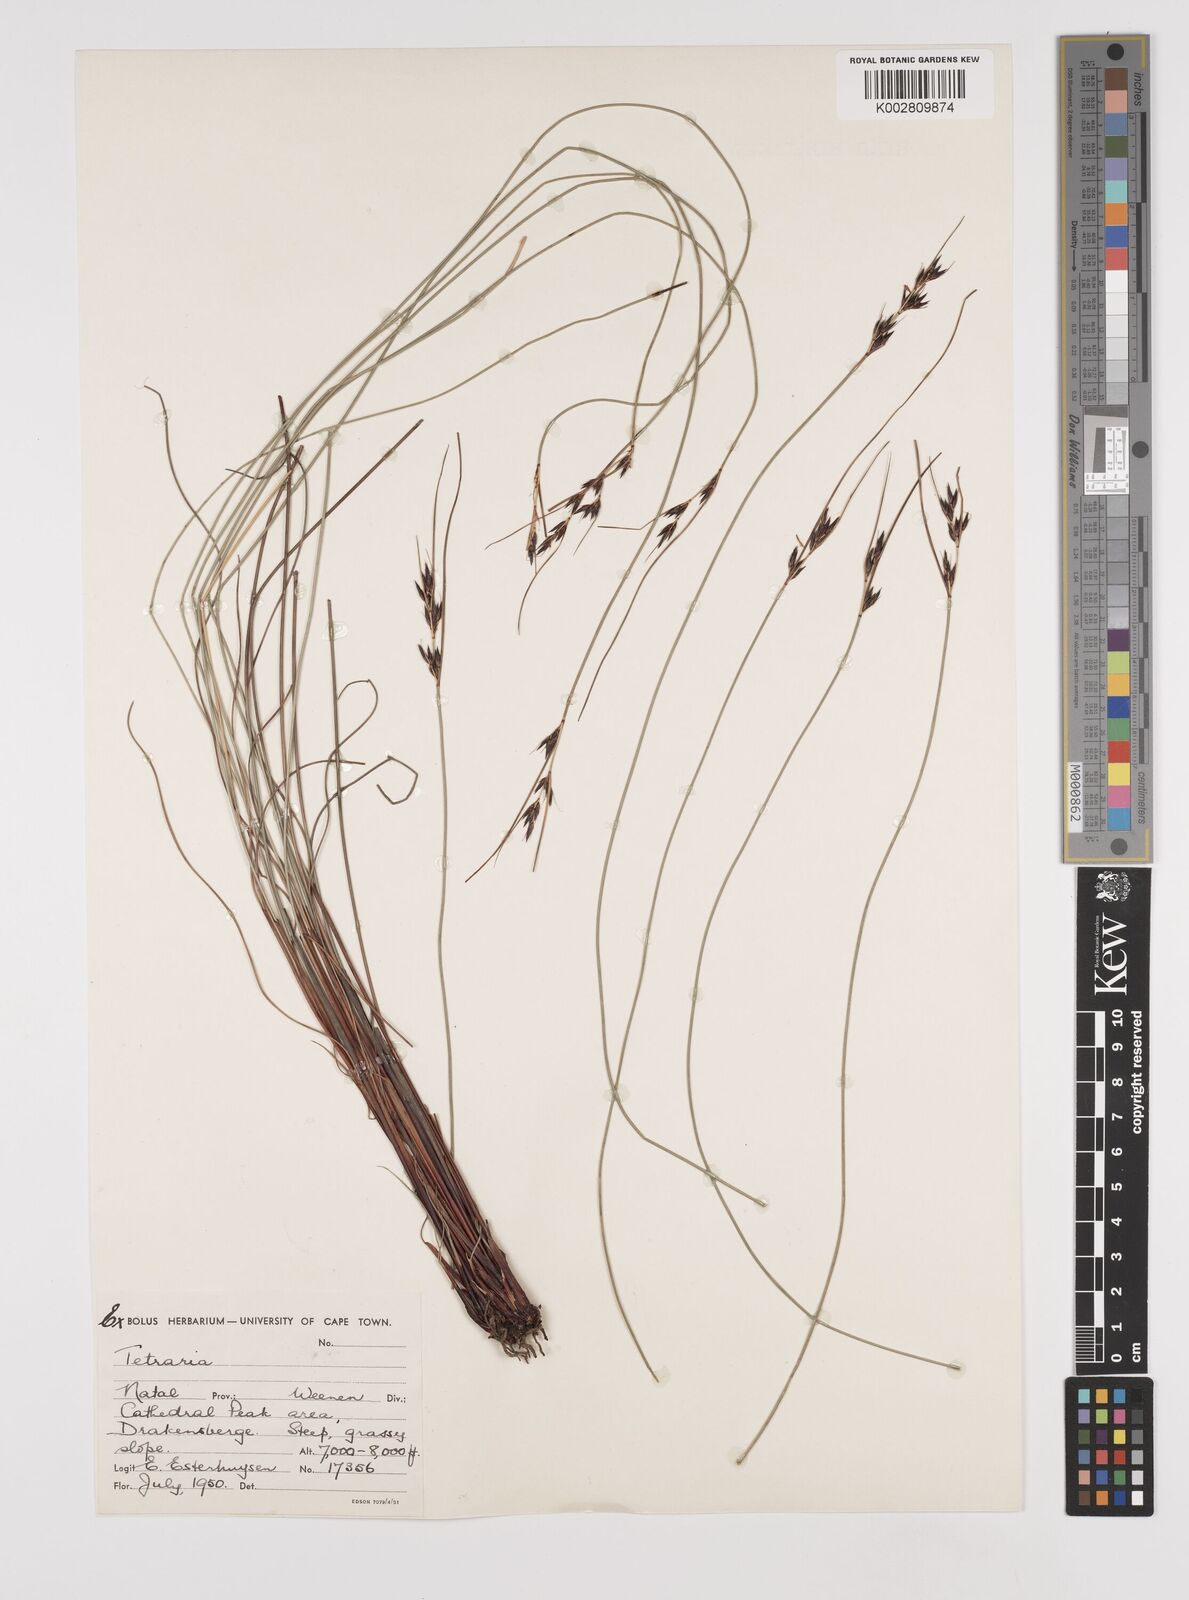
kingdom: Plantae
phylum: Tracheophyta
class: Liliopsida
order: Poales
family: Cyperaceae
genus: Schoenus
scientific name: Schoenus
